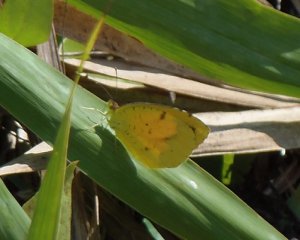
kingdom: Animalia
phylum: Arthropoda
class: Insecta
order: Lepidoptera
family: Pieridae
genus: Abaeis
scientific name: Abaeis nicippe
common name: Sleepy Orange
